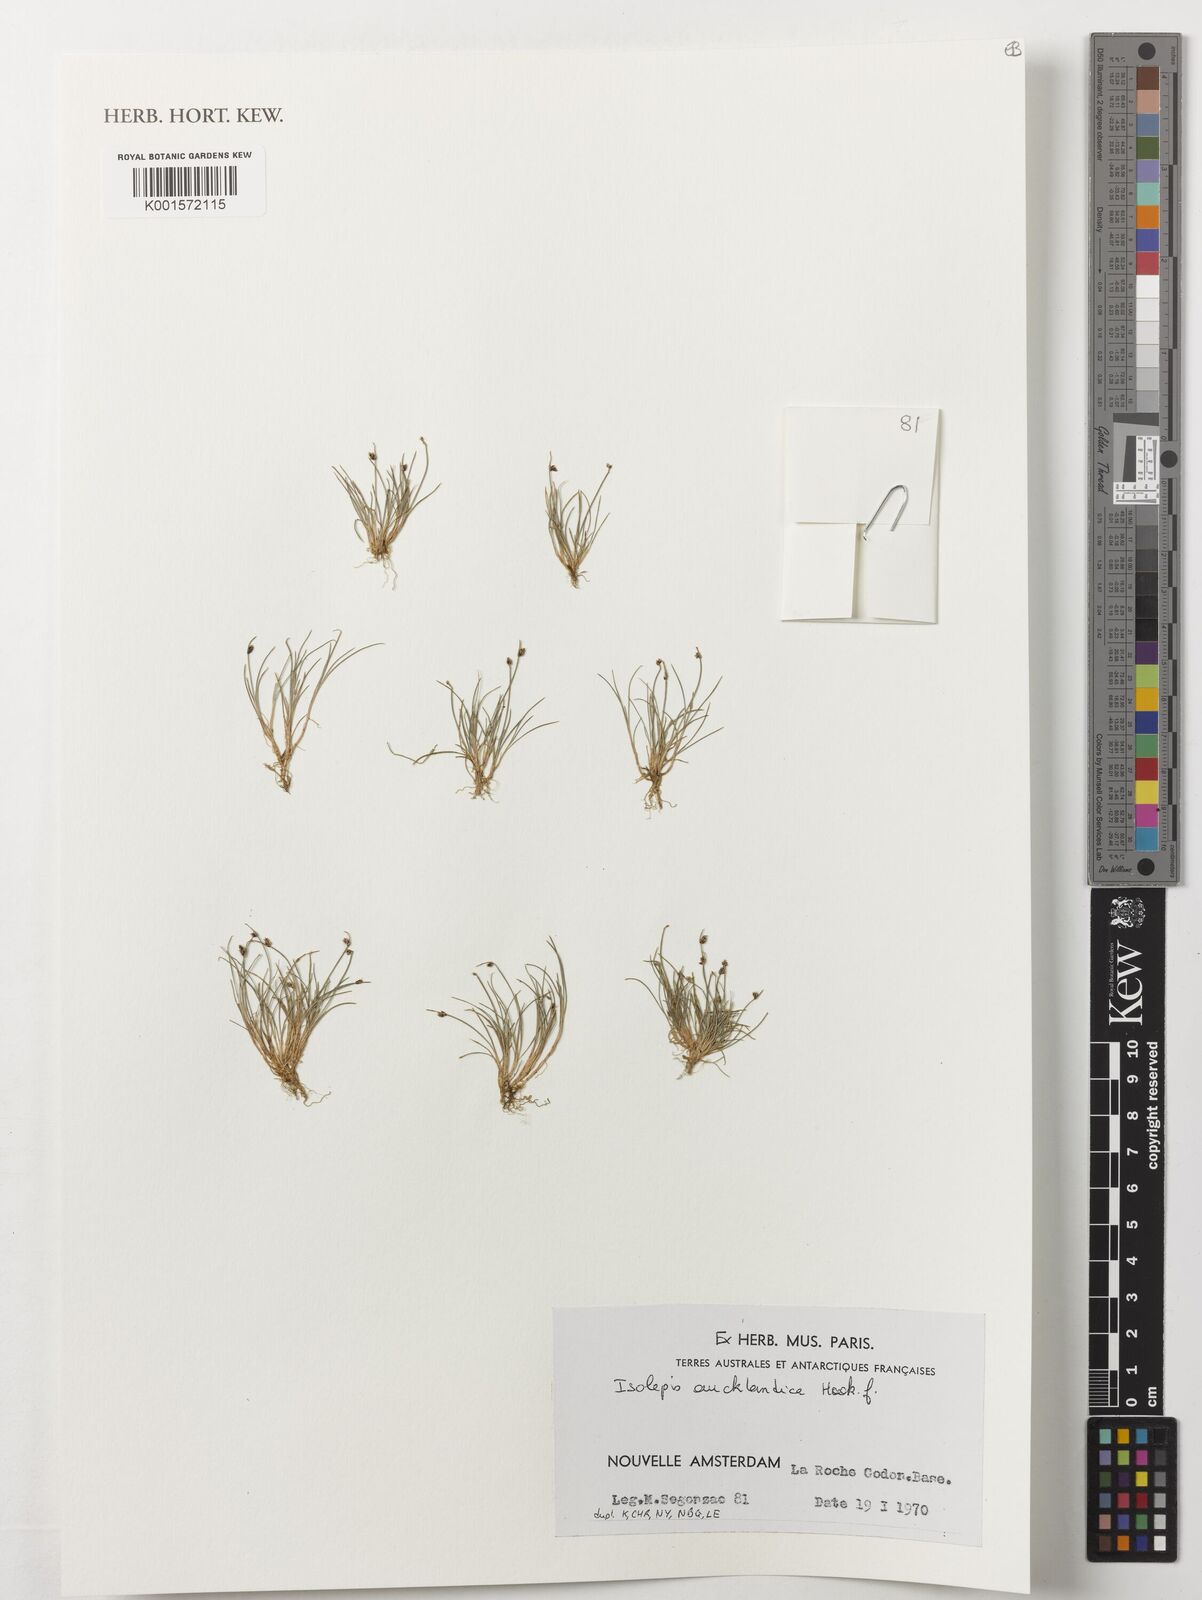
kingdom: Plantae
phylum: Tracheophyta
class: Liliopsida
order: Poales
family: Cyperaceae
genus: Isolepis
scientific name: Isolepis aucklandica
